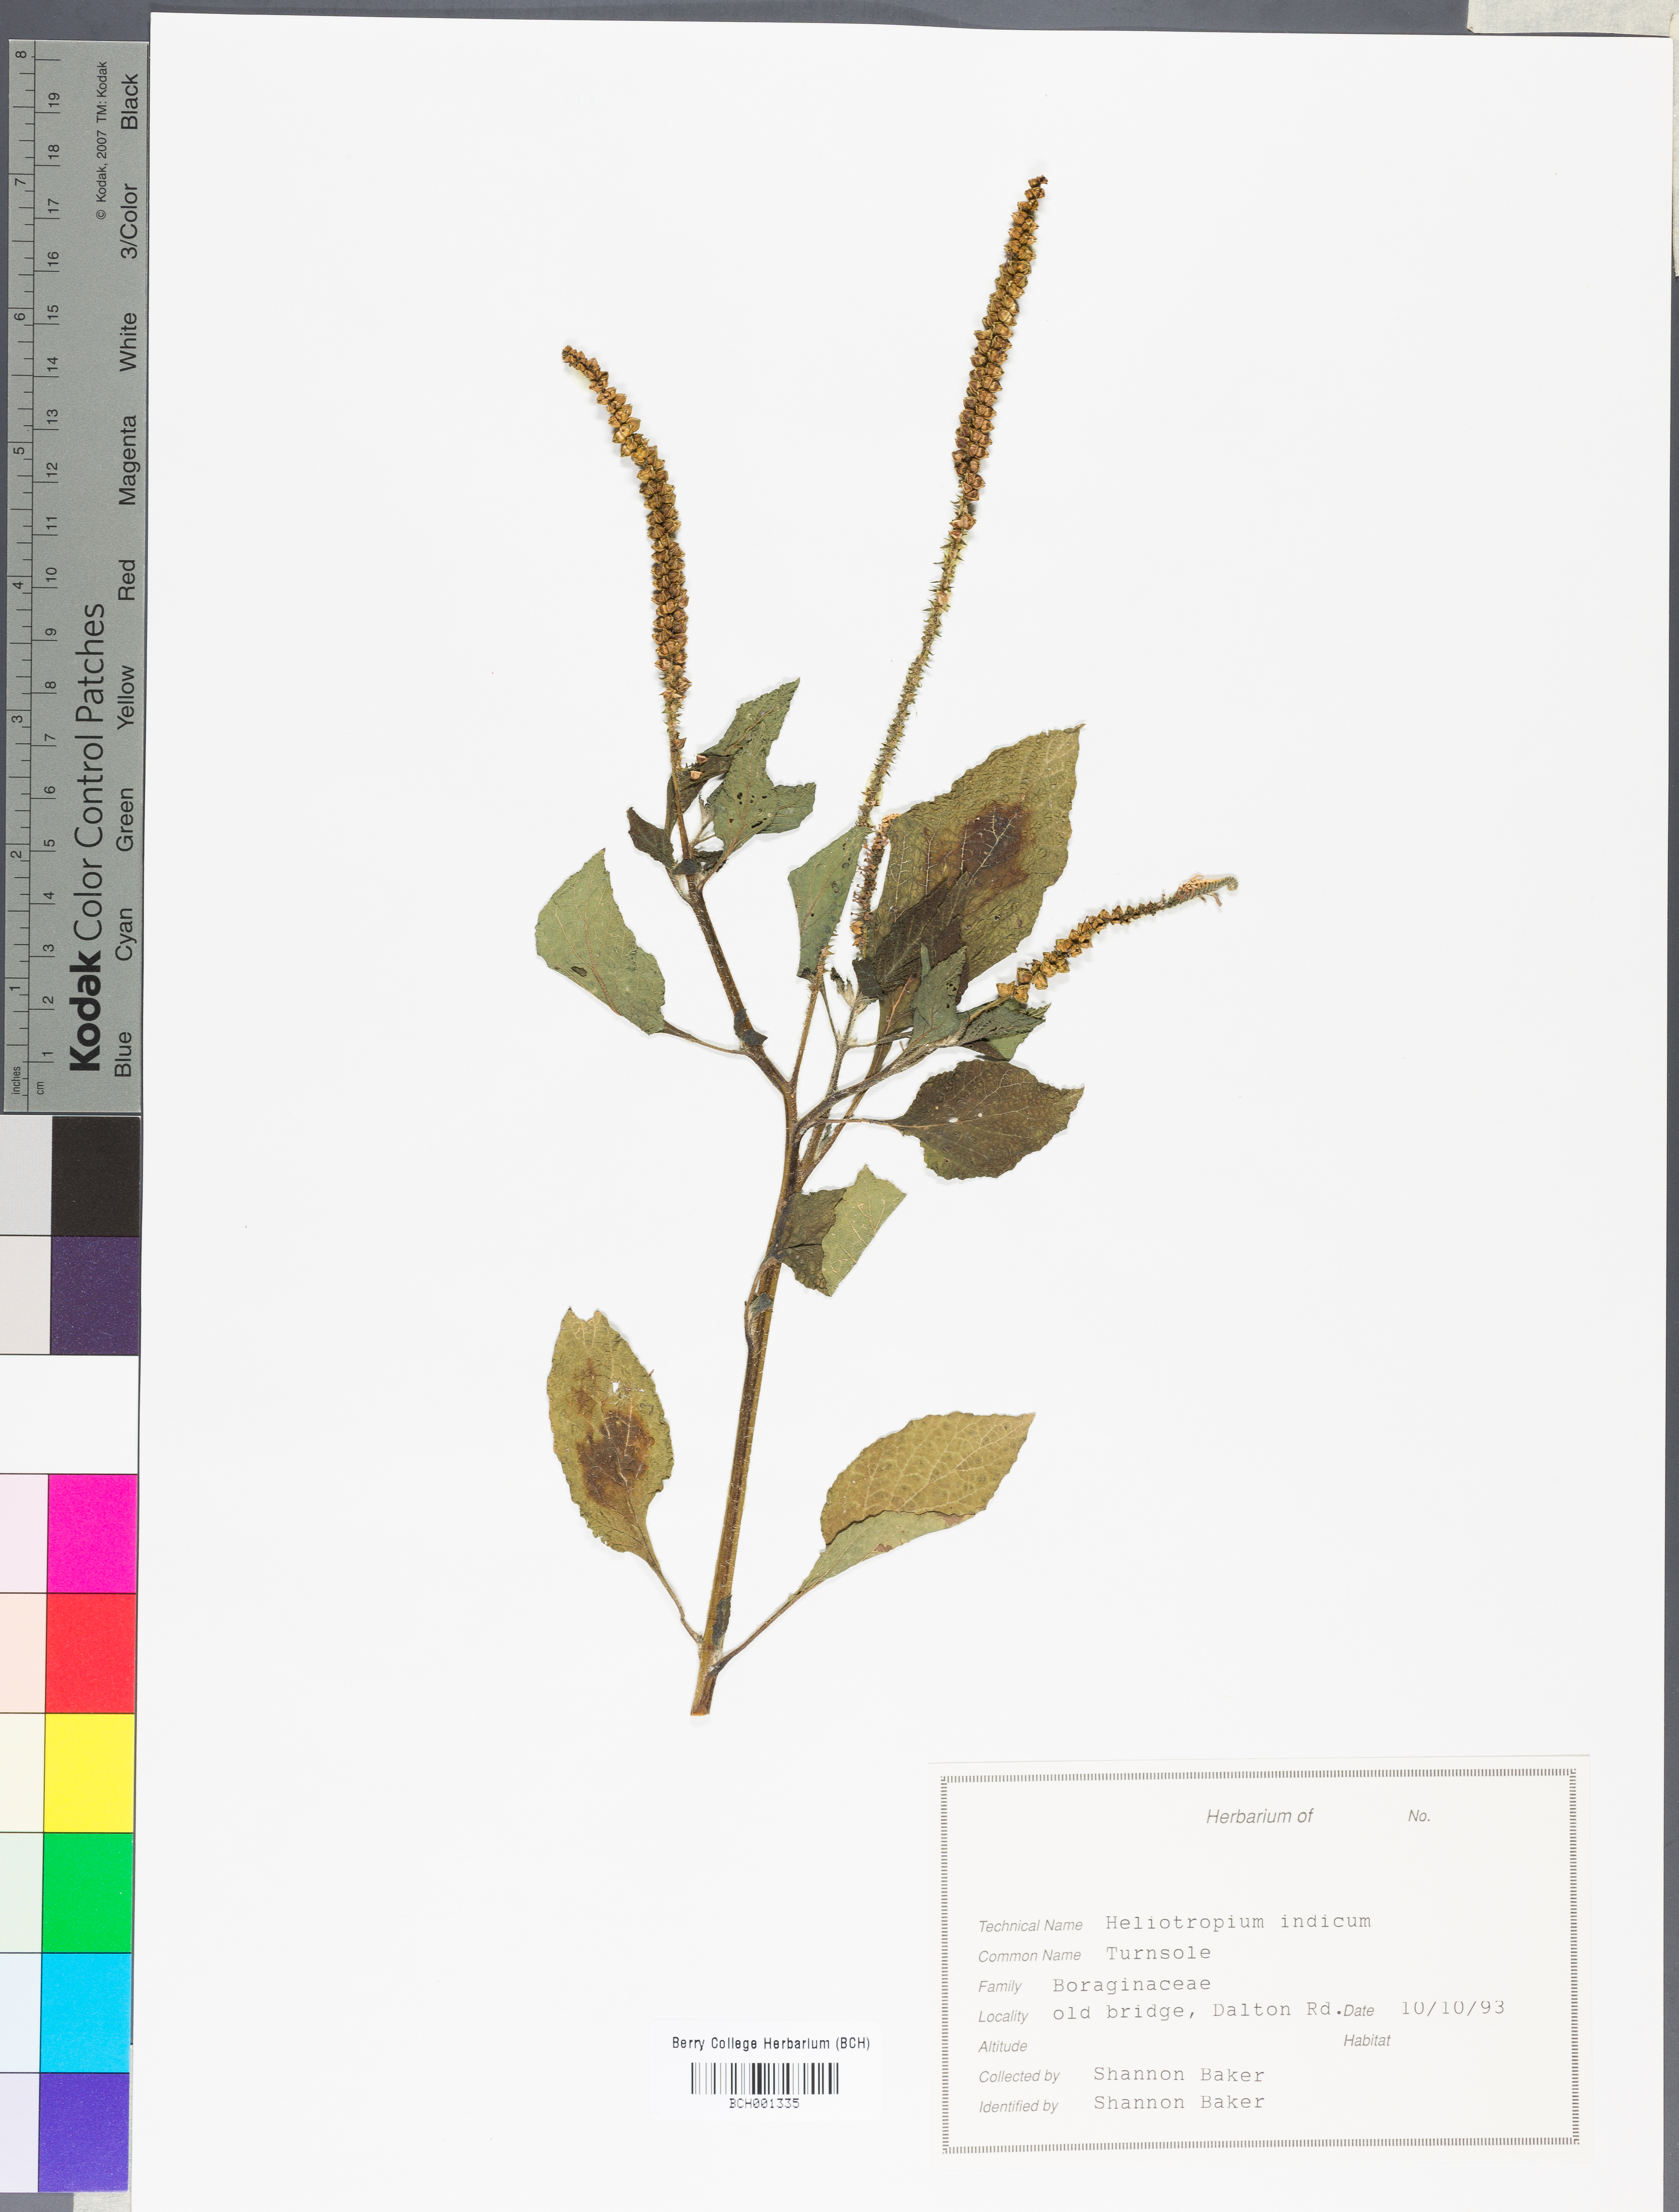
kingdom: Plantae
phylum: Tracheophyta
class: Magnoliopsida
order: Boraginales
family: Heliotropiaceae
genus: Heliotropium
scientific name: Heliotropium indicum
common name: Indian heliotrope
